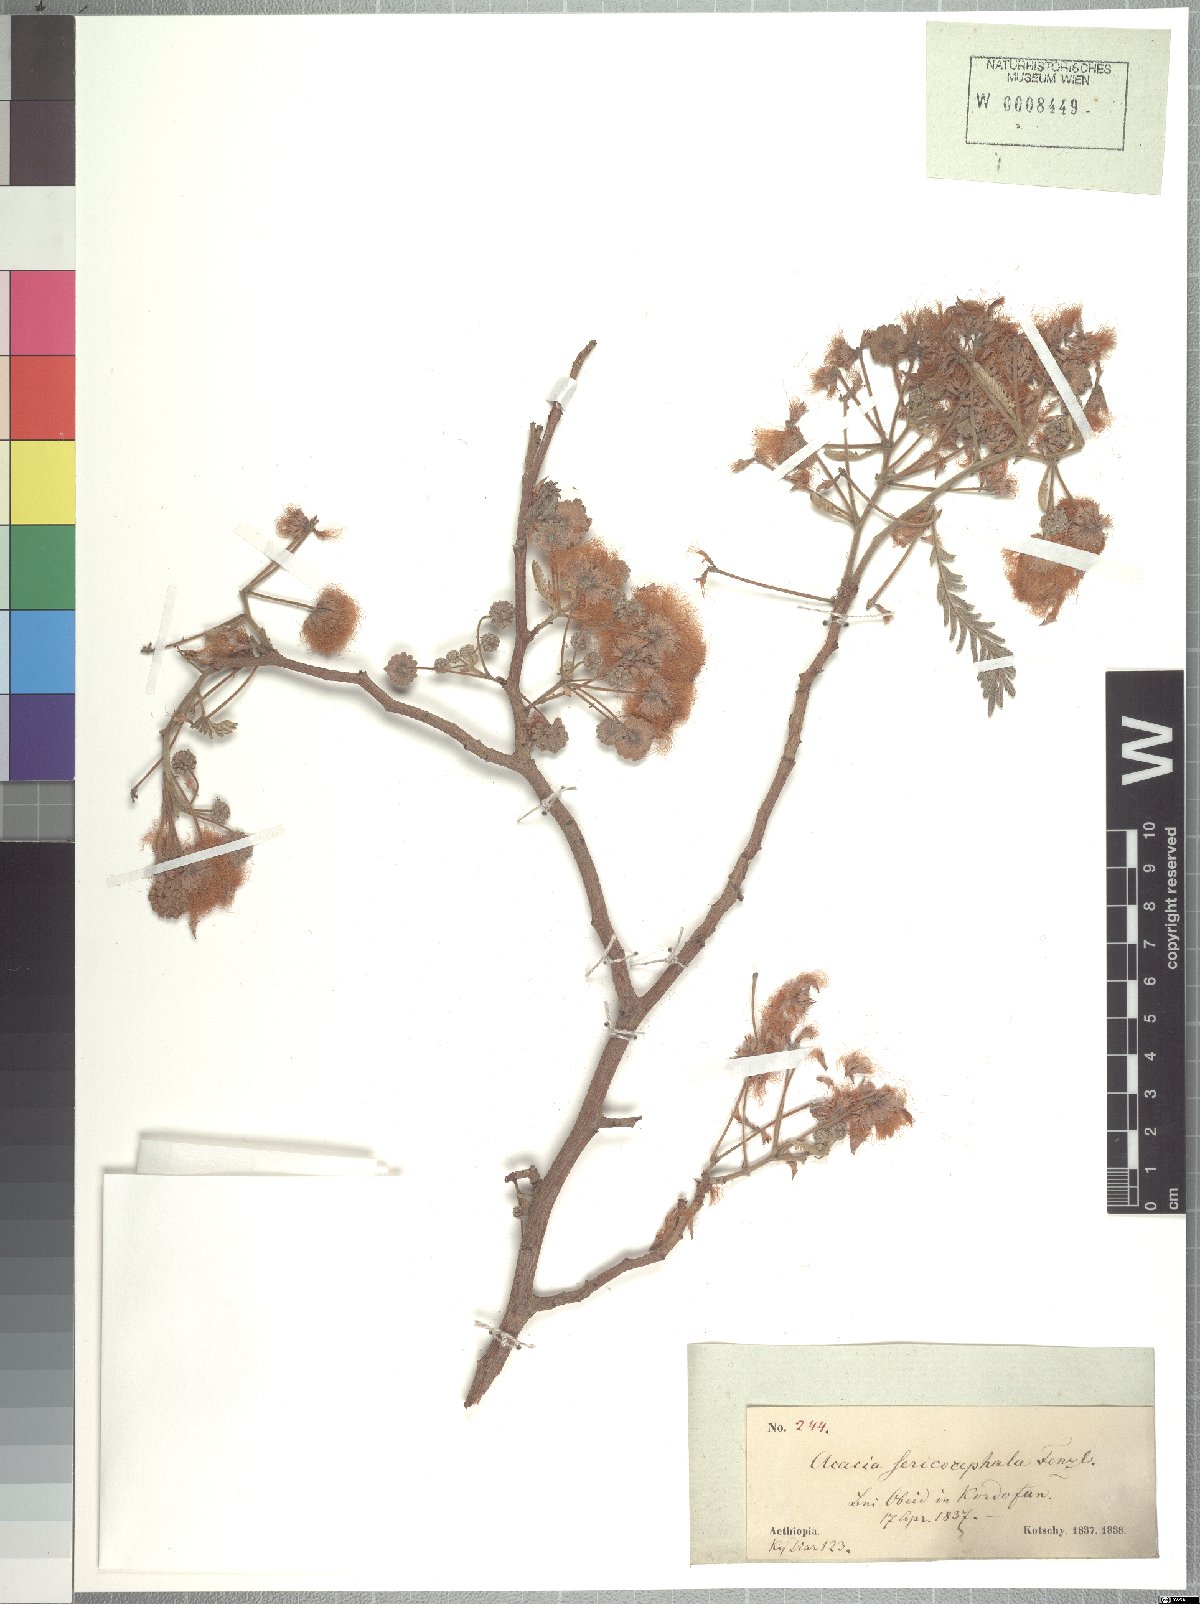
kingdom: Plantae
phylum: Tracheophyta
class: Magnoliopsida
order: Fabales
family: Fabaceae
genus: Albizia
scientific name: Albizia amara
